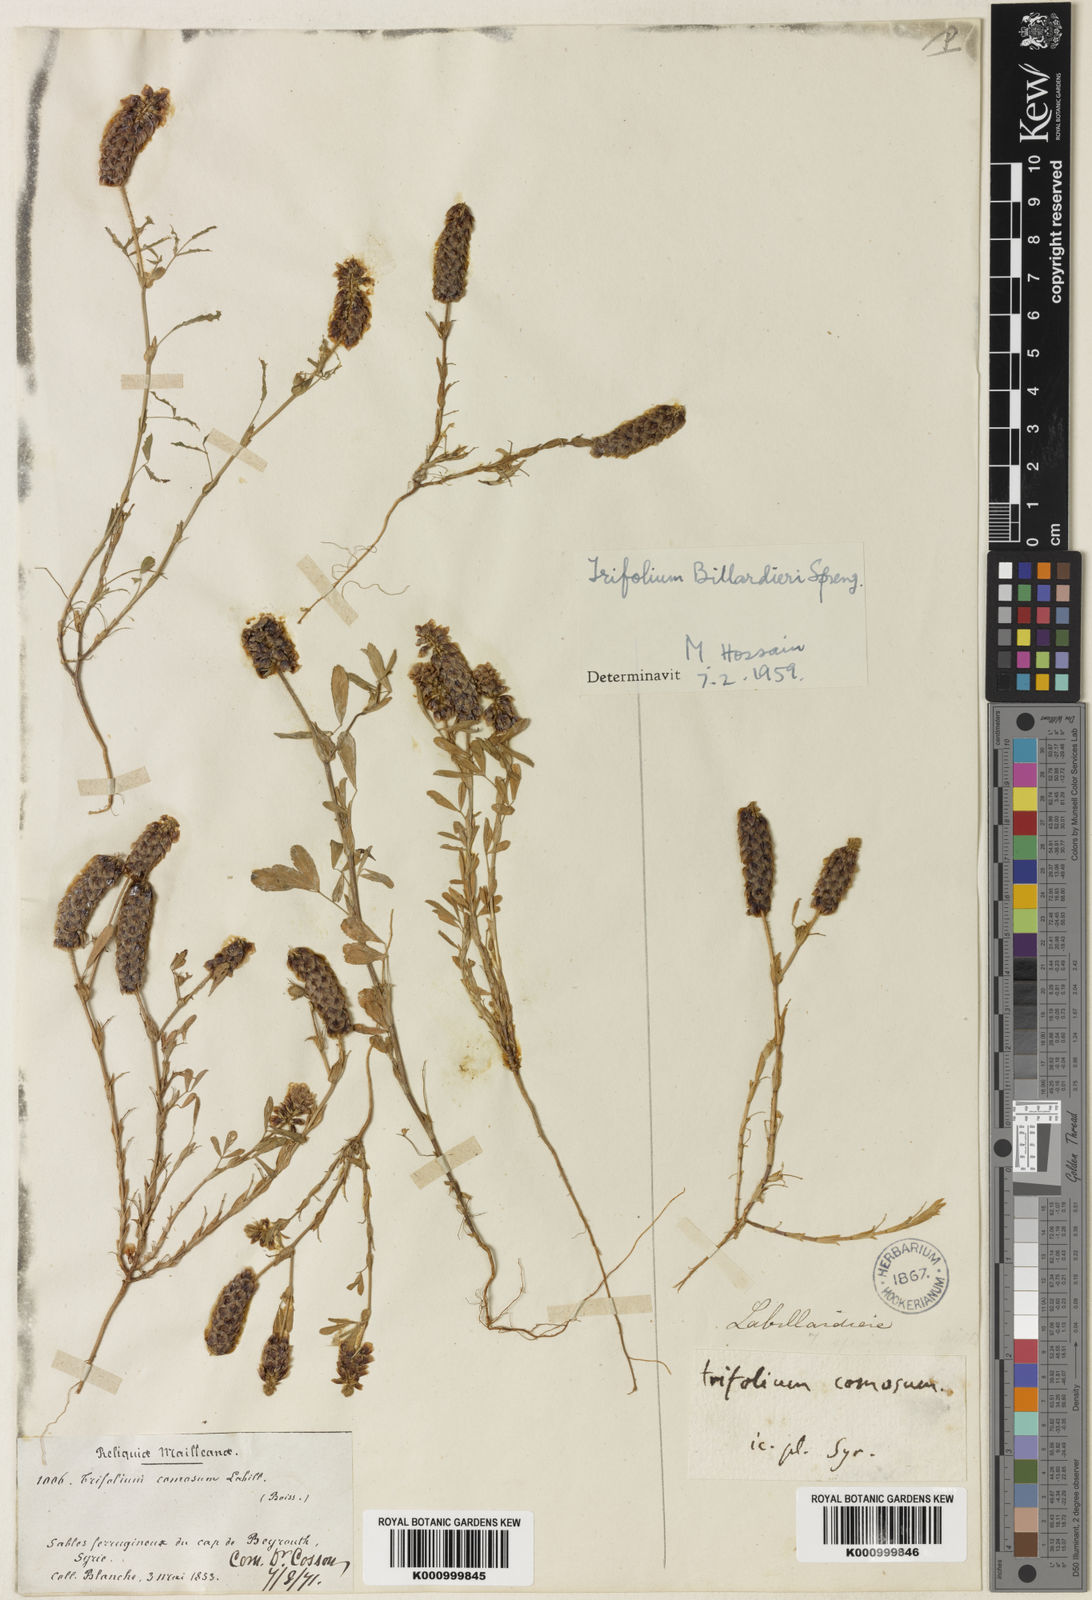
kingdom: Plantae
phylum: Tracheophyta
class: Magnoliopsida
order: Fabales
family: Fabaceae
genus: Trifolium
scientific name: Trifolium billardierei
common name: Labillardiere's clover
